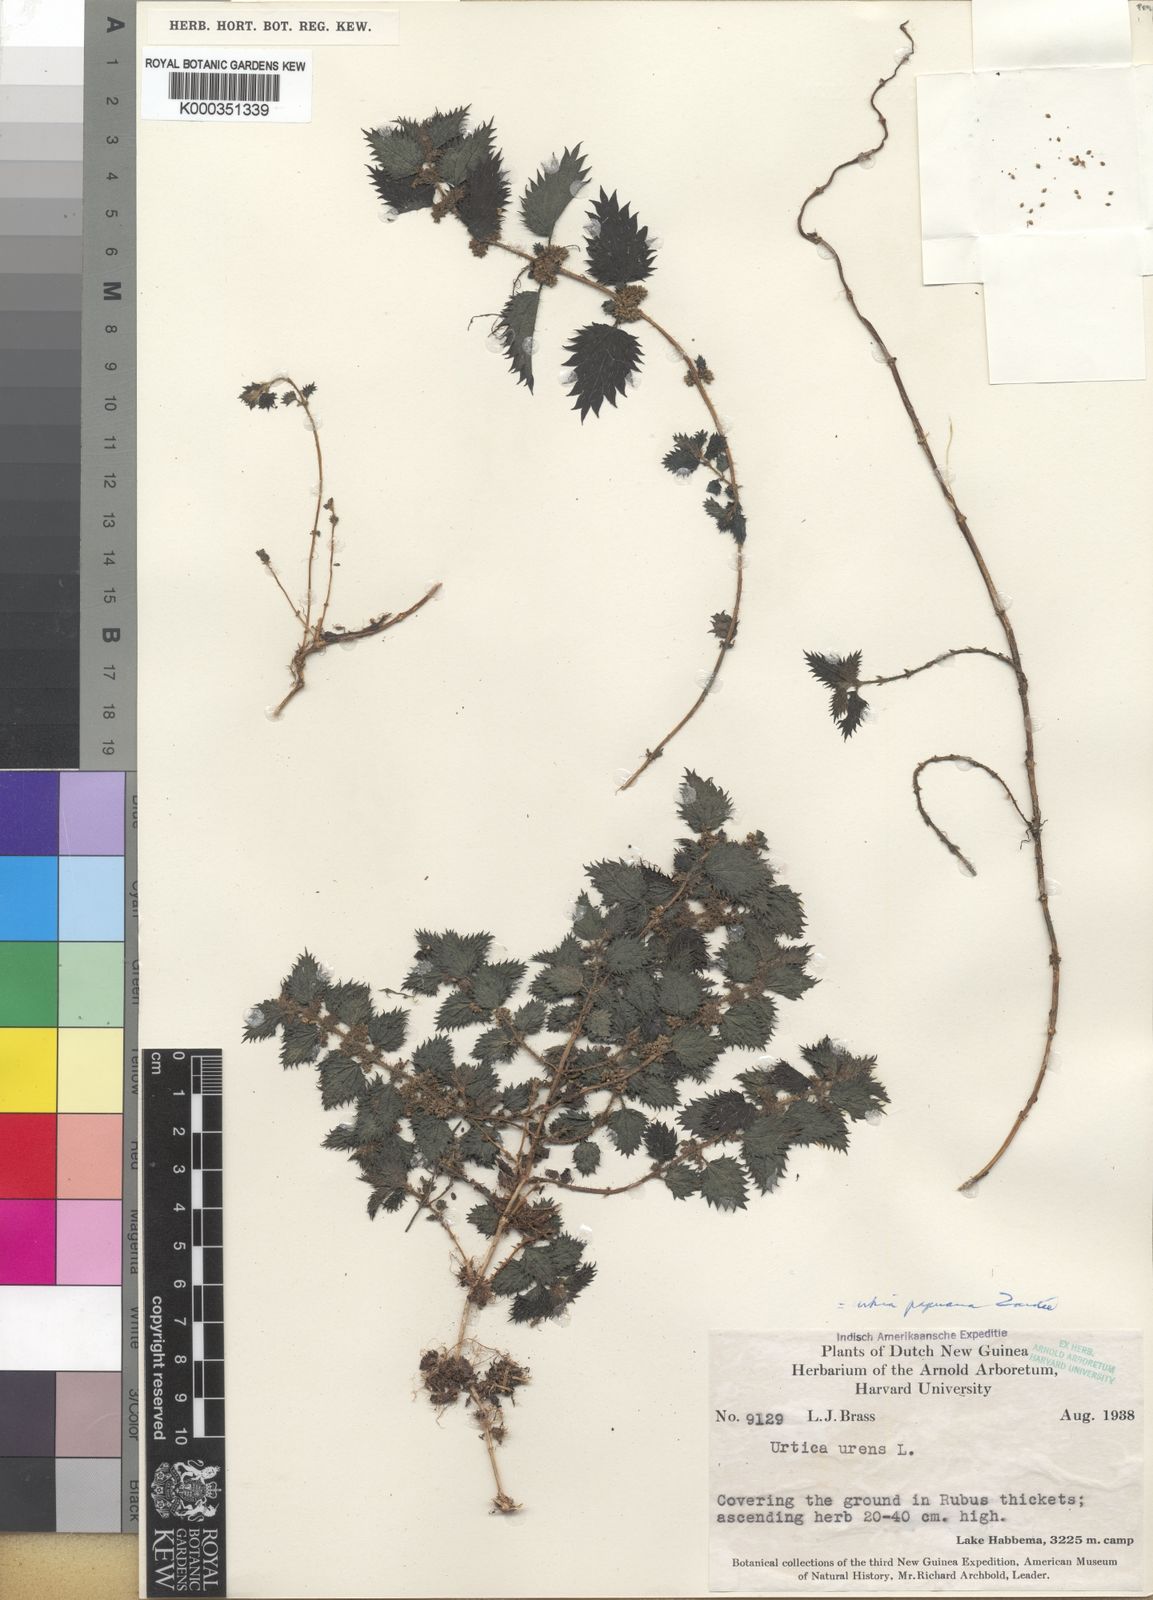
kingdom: Plantae
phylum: Tracheophyta
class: Magnoliopsida
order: Rosales
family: Urticaceae
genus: Urtica
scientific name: Urtica papuana
